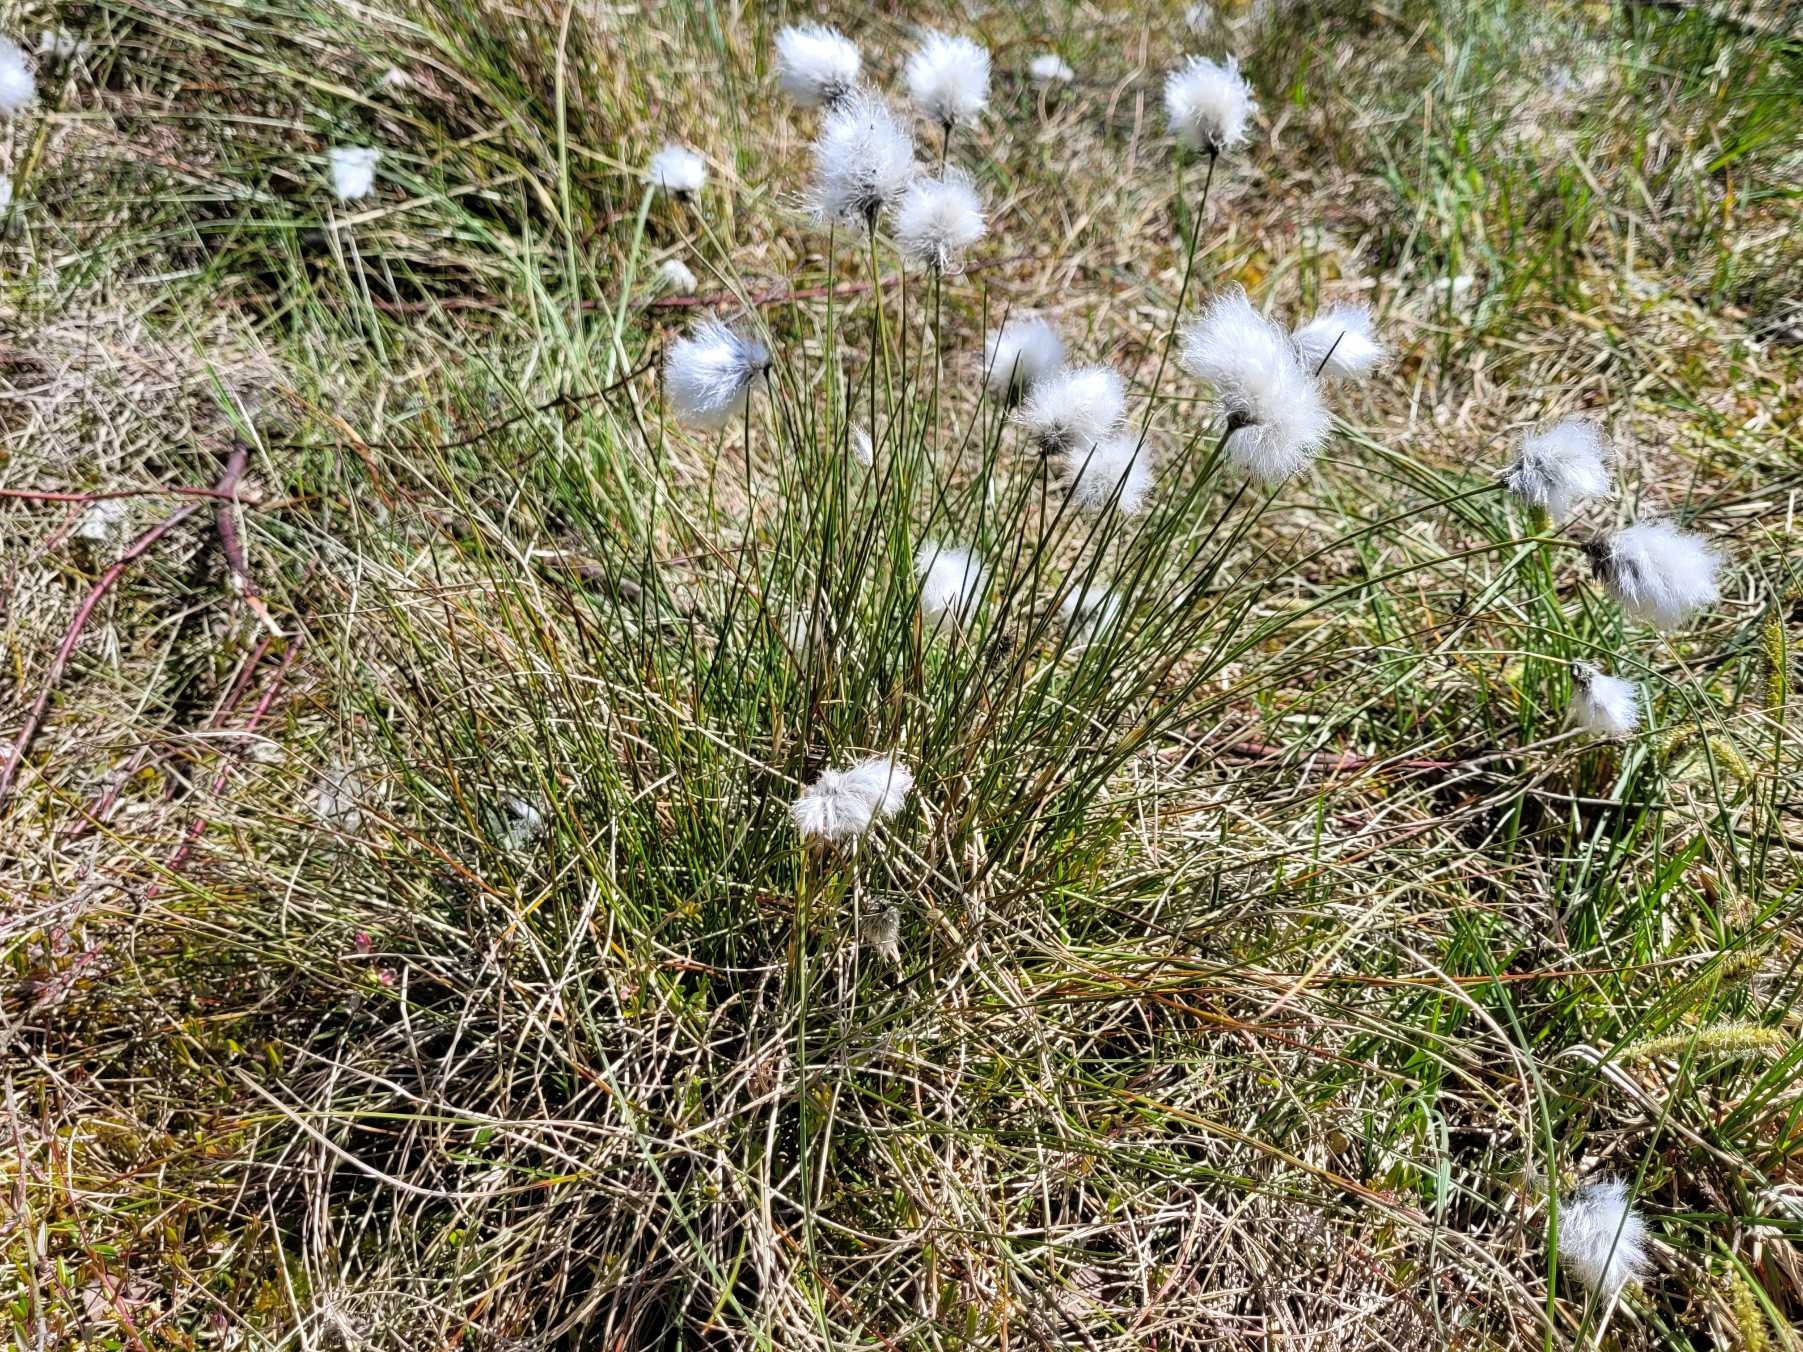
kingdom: Plantae
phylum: Tracheophyta
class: Liliopsida
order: Poales
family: Cyperaceae
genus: Eriophorum
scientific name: Eriophorum vaginatum
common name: Tue-kæruld
